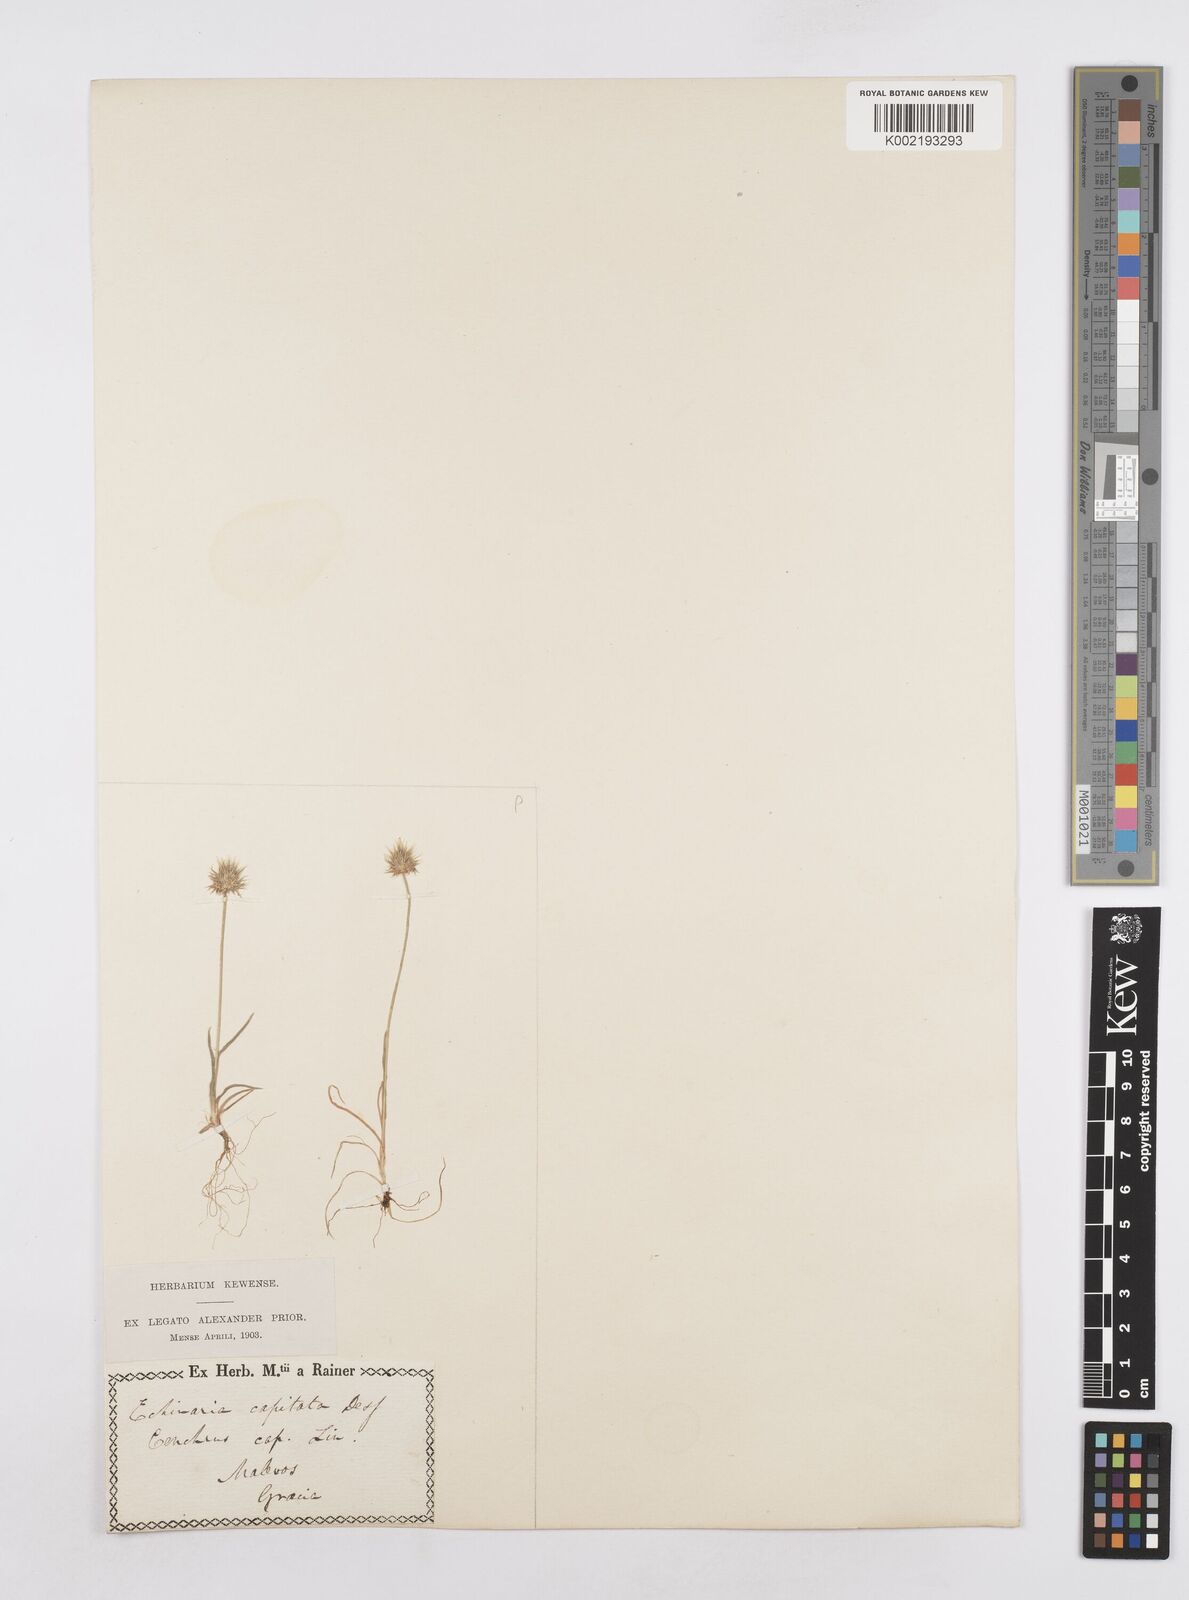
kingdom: Plantae
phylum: Tracheophyta
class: Liliopsida
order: Poales
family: Poaceae
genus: Echinaria
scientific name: Echinaria capitata
